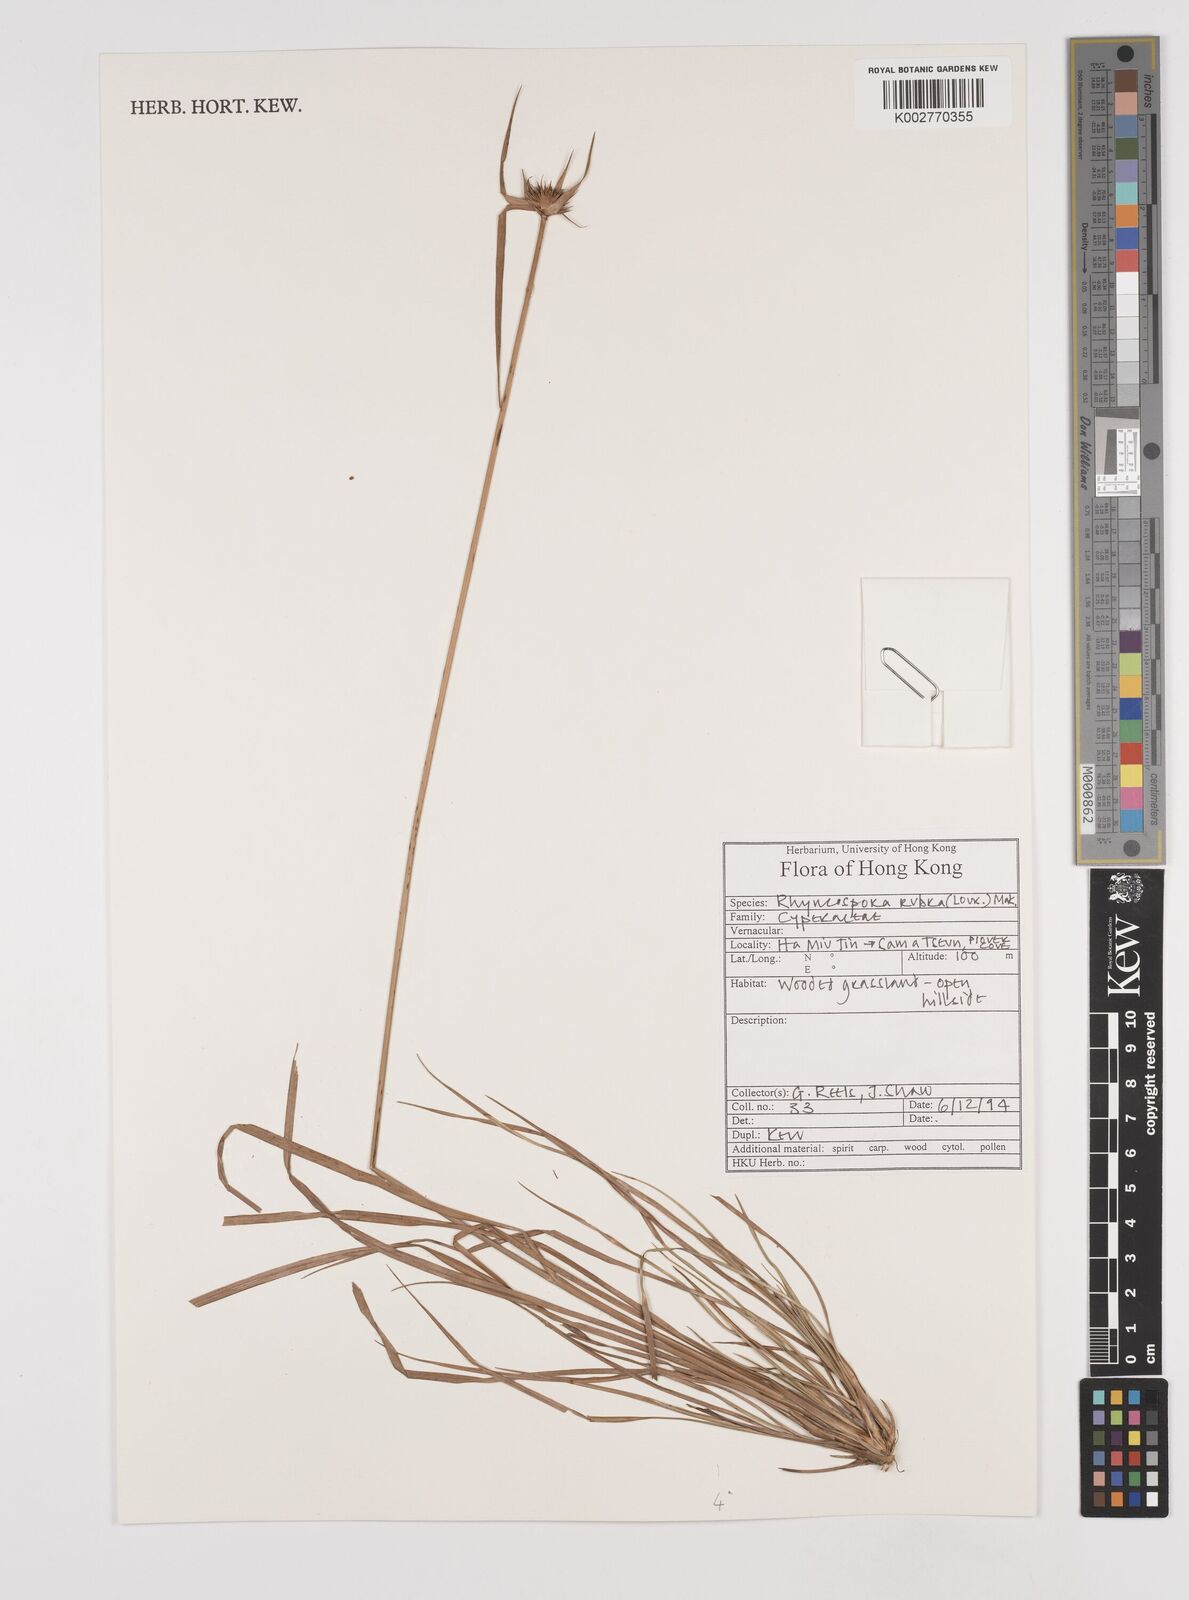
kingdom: Plantae
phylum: Tracheophyta
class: Liliopsida
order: Poales
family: Cyperaceae
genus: Rhynchospora
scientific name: Rhynchospora rubra
